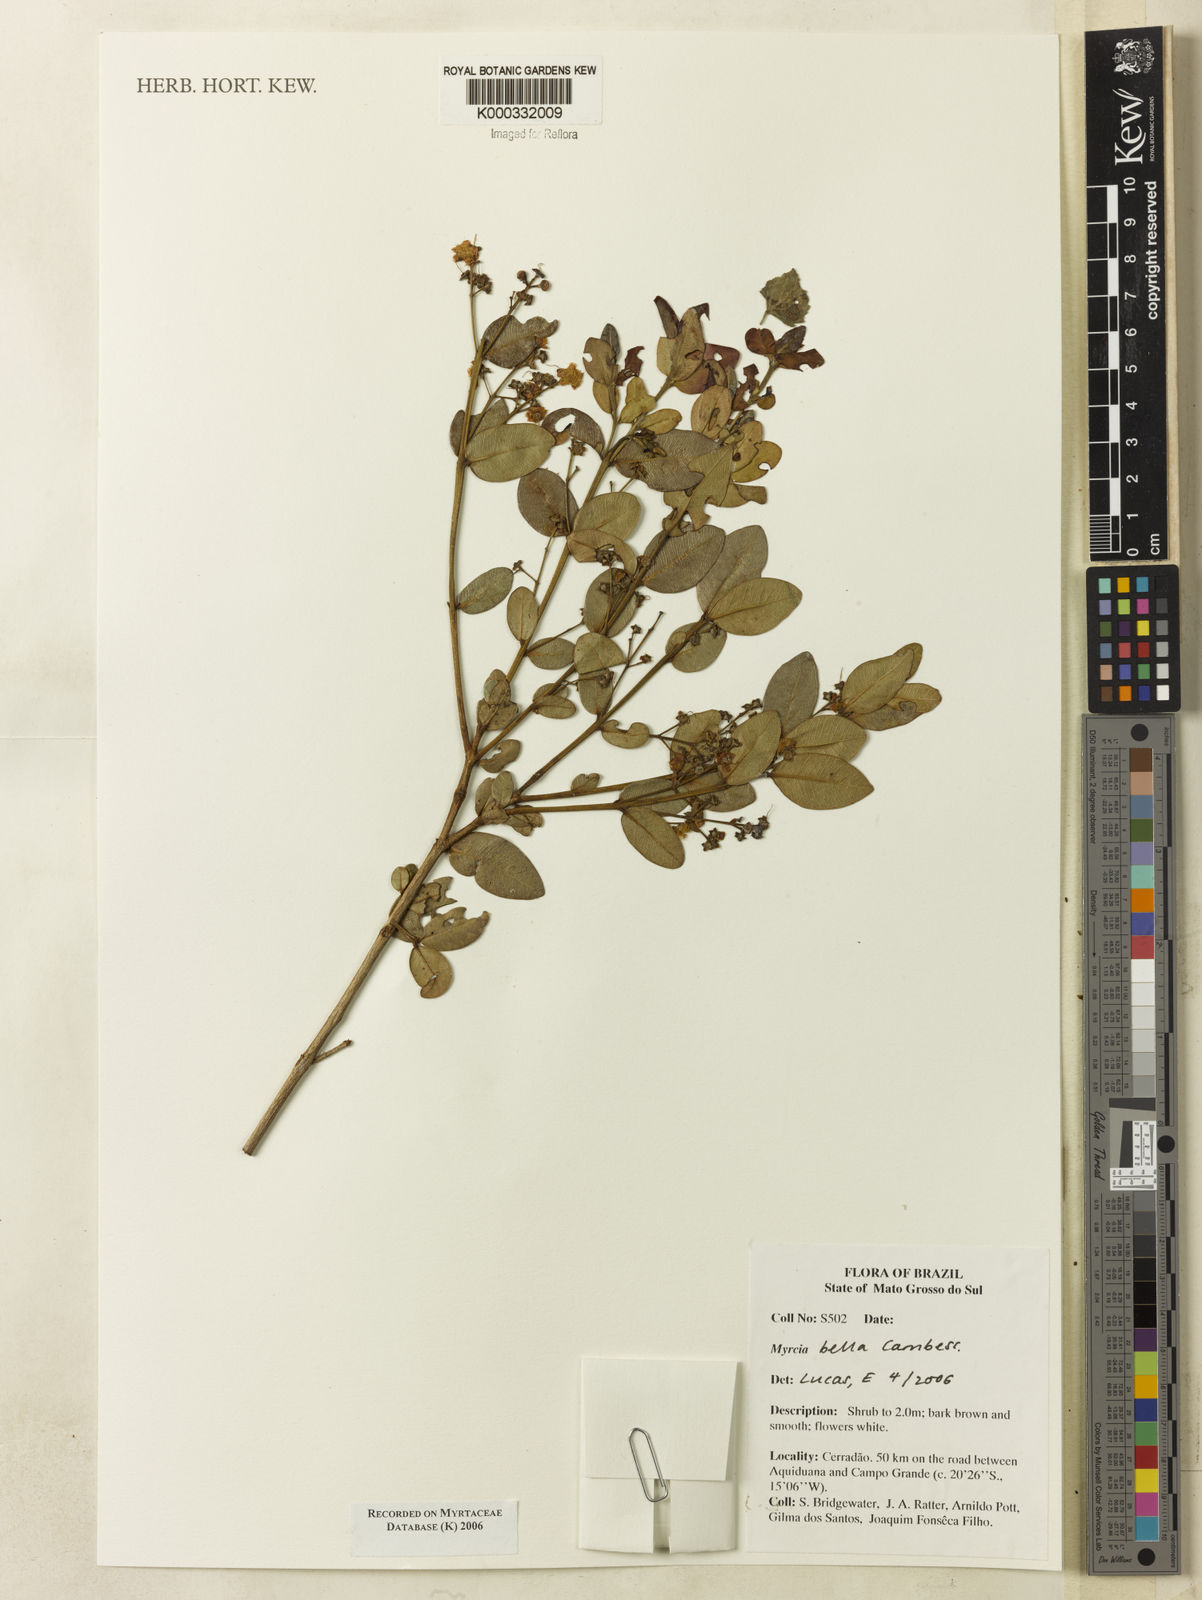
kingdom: Plantae
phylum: Tracheophyta
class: Magnoliopsida
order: Myrtales
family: Myrtaceae
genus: Myrcia
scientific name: Myrcia bella
